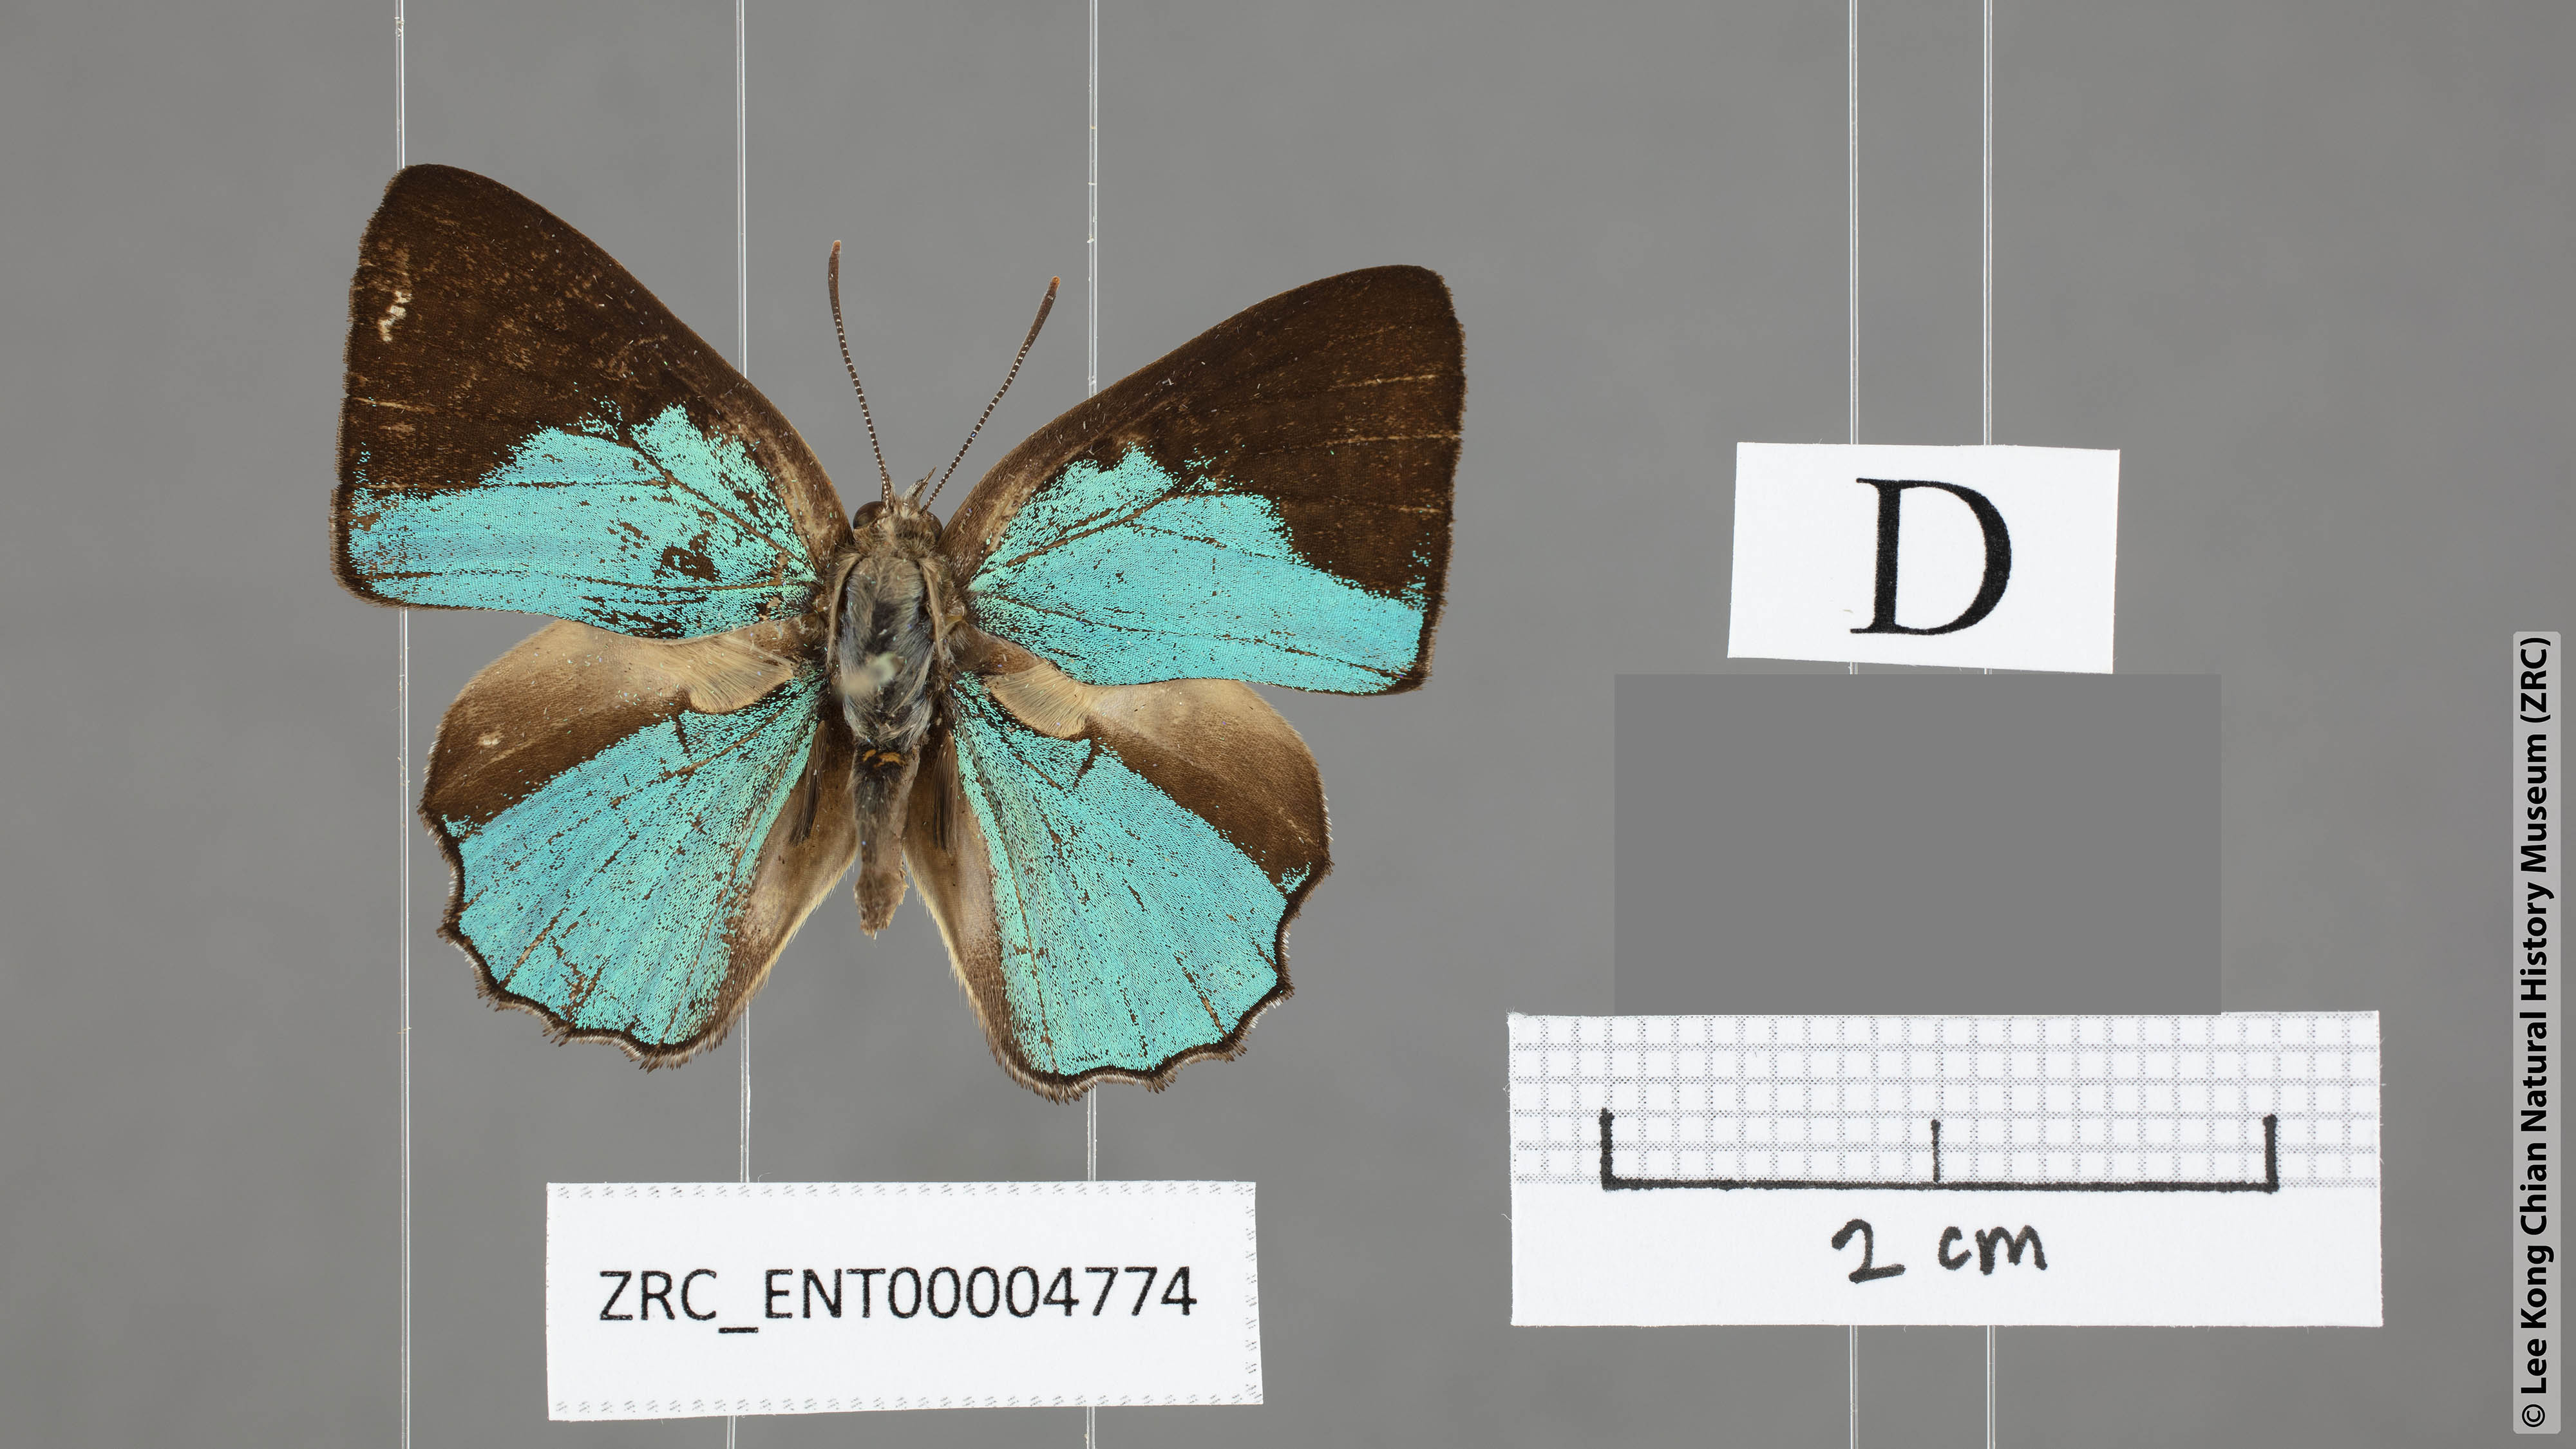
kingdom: Animalia
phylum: Arthropoda
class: Insecta
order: Lepidoptera
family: Lycaenidae
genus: Poritia
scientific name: Poritia promula
